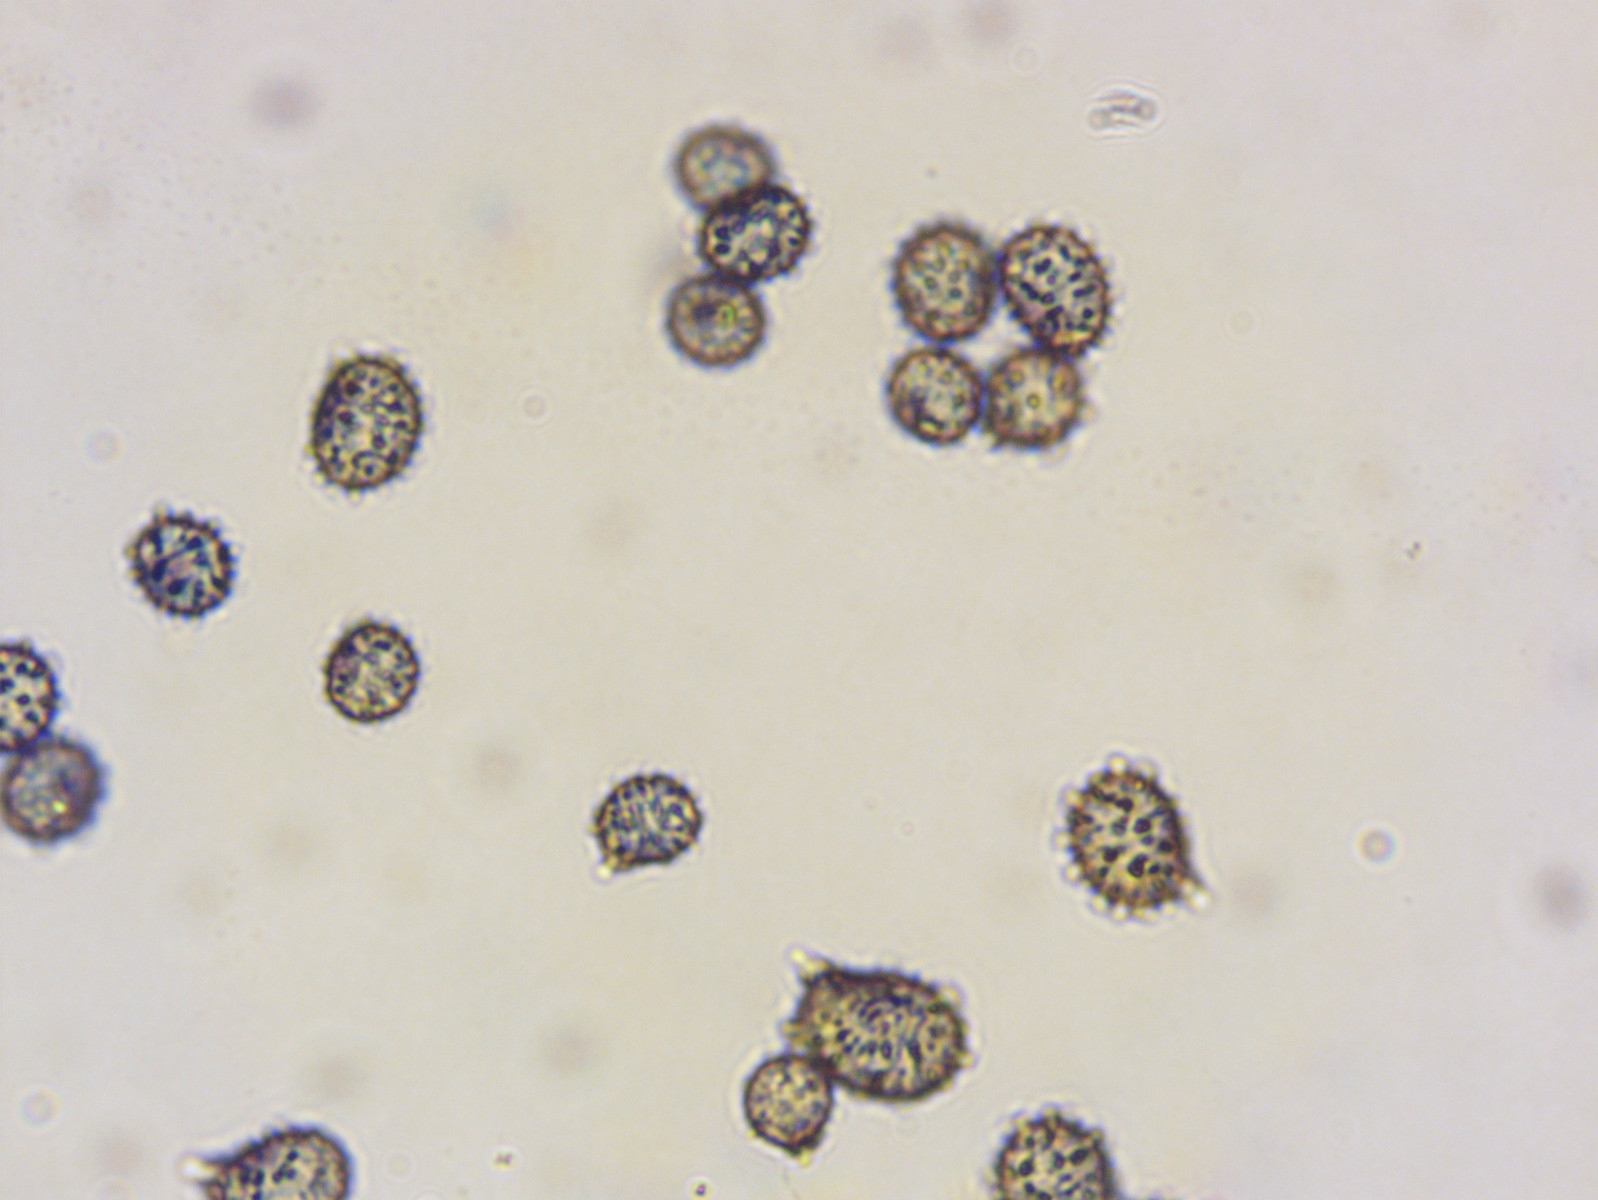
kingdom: Fungi
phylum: Basidiomycota
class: Agaricomycetes
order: Russulales
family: Russulaceae
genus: Russula
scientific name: Russula luteotacta
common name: gulplettet gift-skørhat
